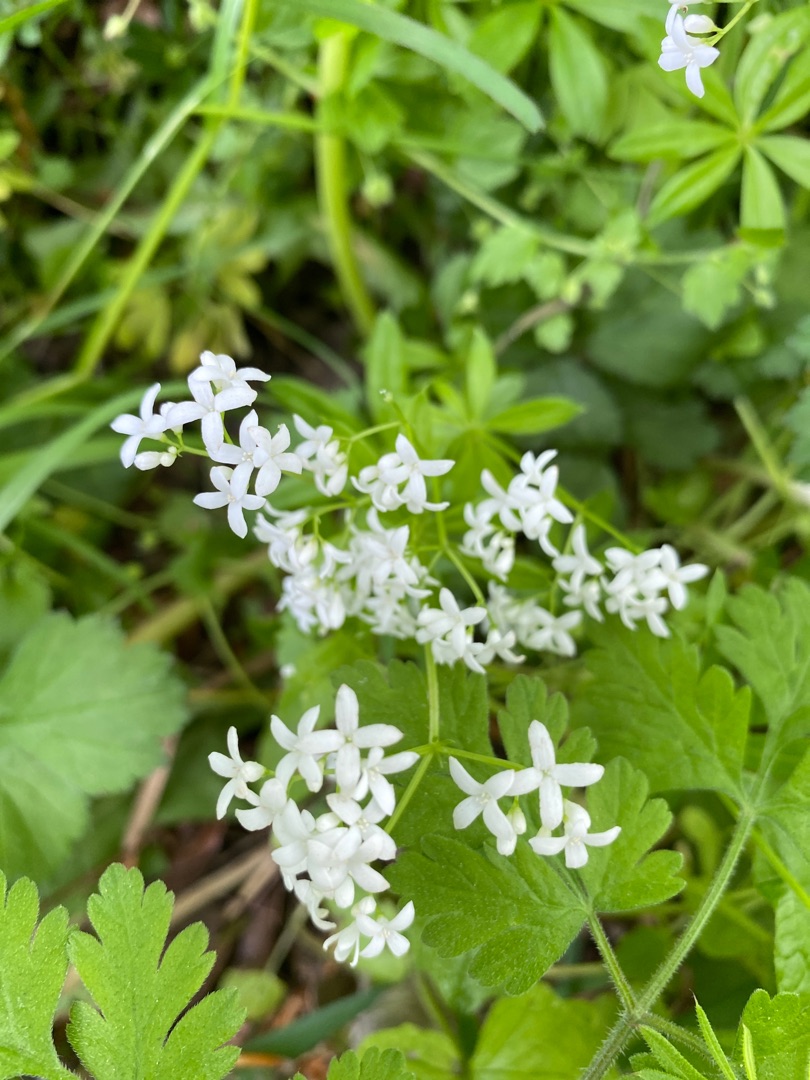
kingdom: Plantae
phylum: Tracheophyta
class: Magnoliopsida
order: Gentianales
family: Rubiaceae
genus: Galium
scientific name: Galium odoratum
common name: Skovmærke
